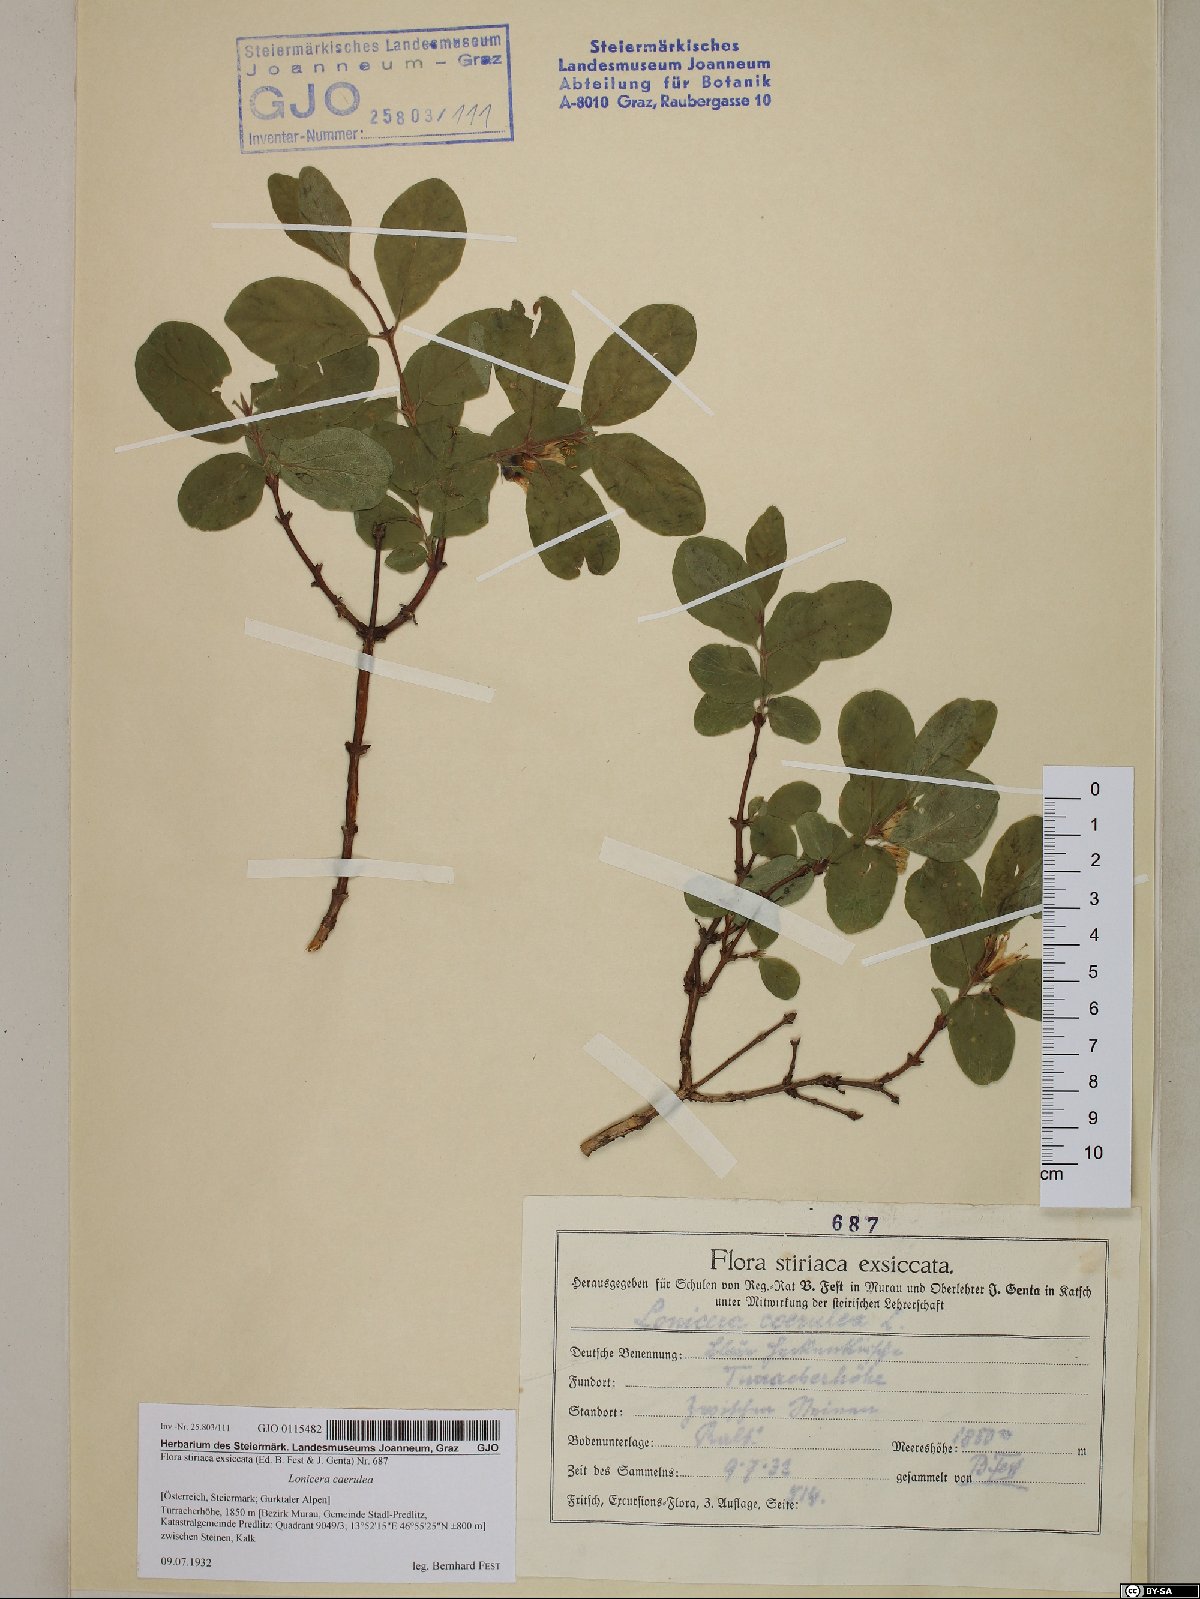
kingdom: Plantae
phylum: Tracheophyta
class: Magnoliopsida
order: Dipsacales
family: Caprifoliaceae
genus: Lonicera
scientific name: Lonicera caerulea
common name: Blue honeysuckle
